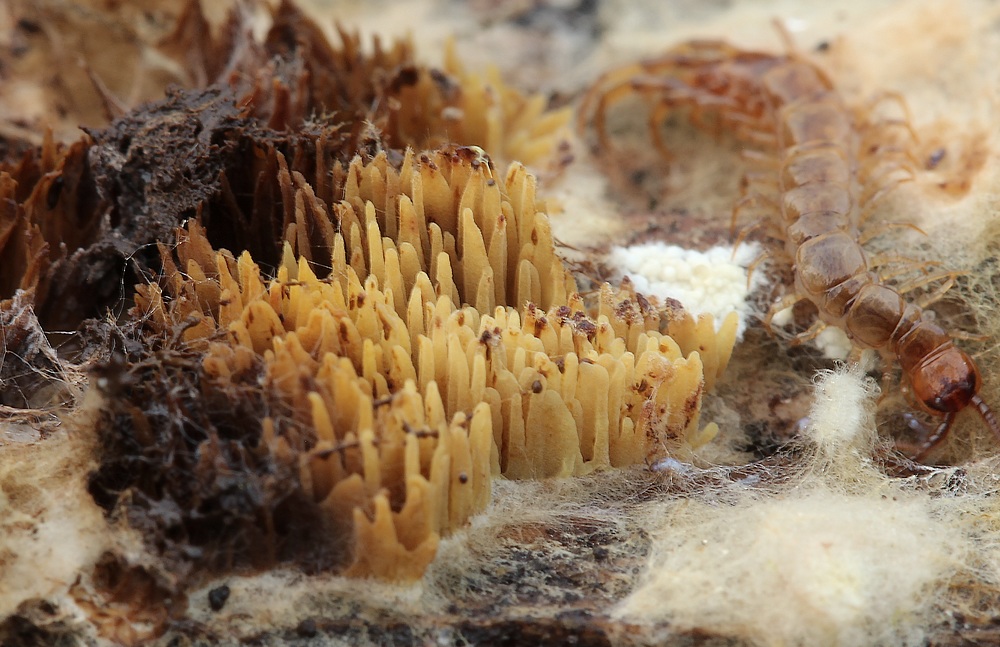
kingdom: Fungi
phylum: Basidiomycota
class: Agaricomycetes
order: Boletales
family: Paxillaceae
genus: Hydnomerulius
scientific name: Hydnomerulius pinastri
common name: pigget hussvamp
